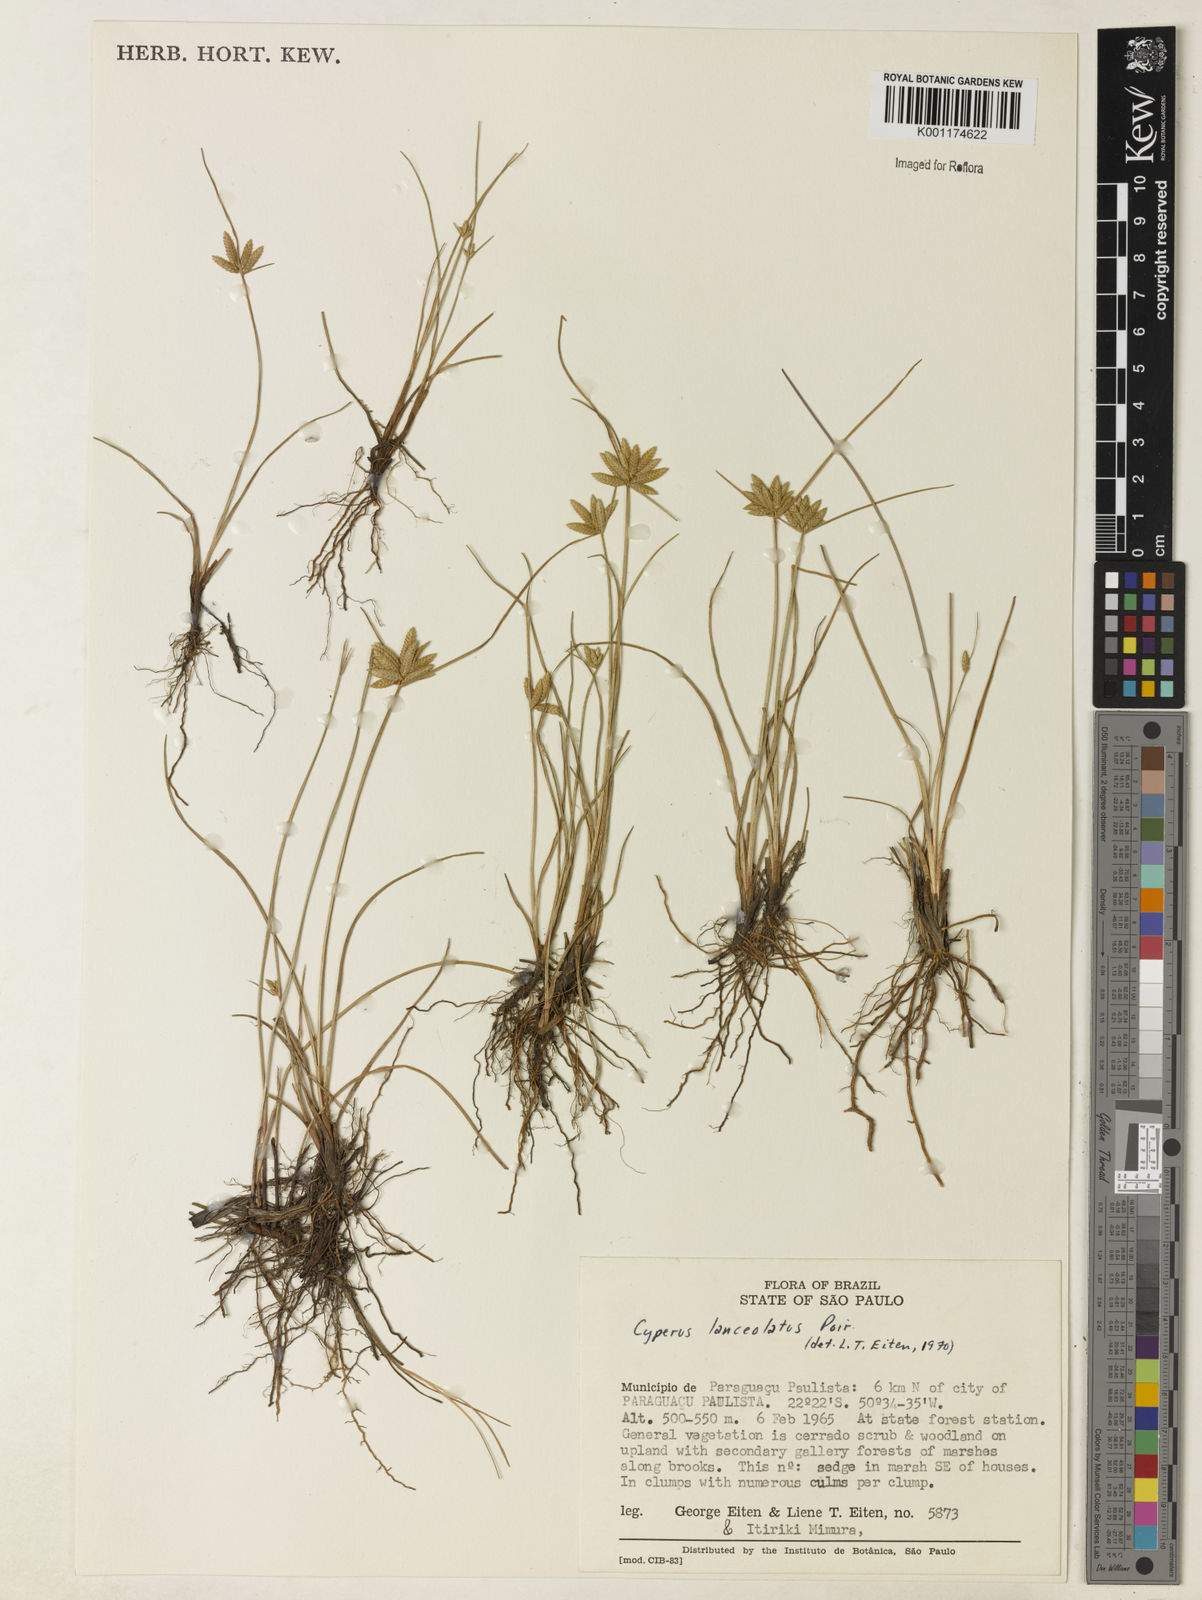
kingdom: Plantae
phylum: Tracheophyta
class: Liliopsida
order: Poales
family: Cyperaceae
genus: Cyperus
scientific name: Cyperus
